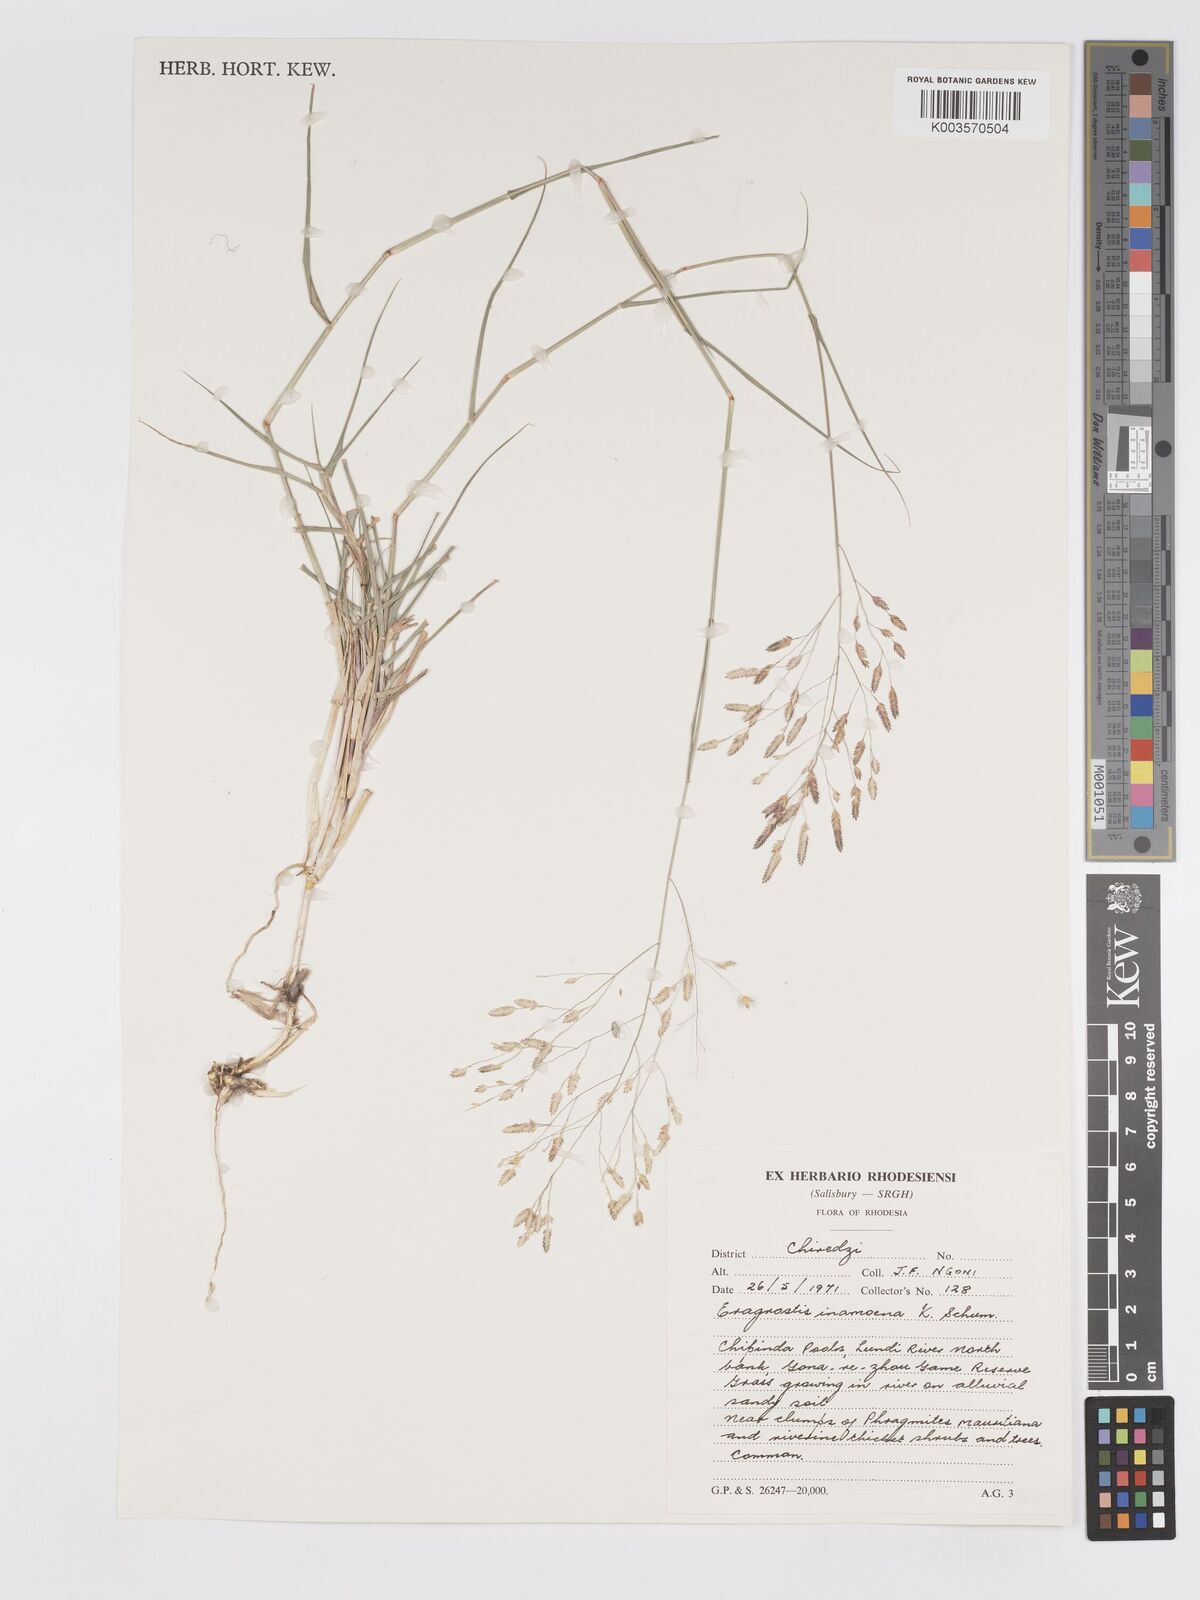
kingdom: Plantae
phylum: Tracheophyta
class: Liliopsida
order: Poales
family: Poaceae
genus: Eragrostis
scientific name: Eragrostis inamoena
